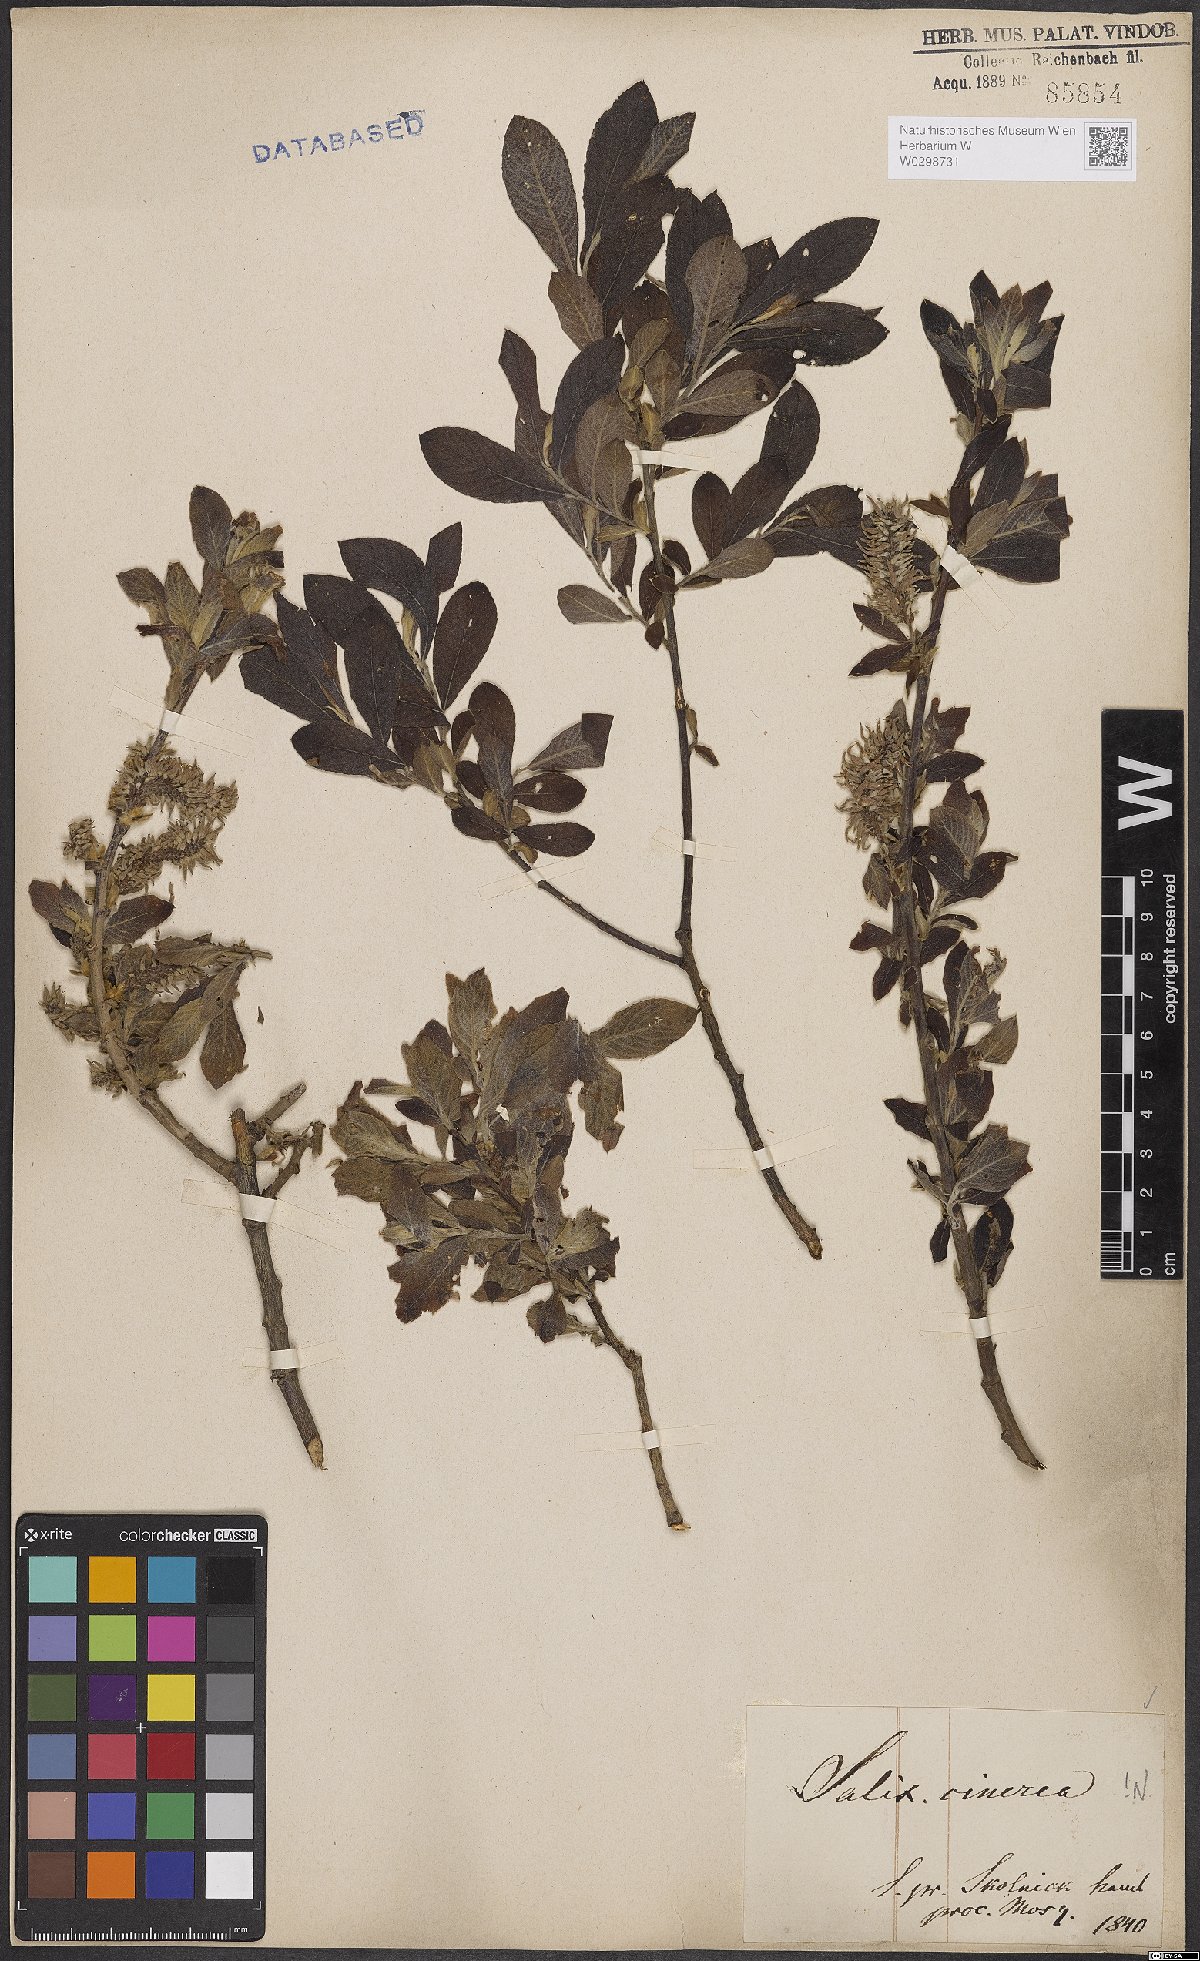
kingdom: Plantae
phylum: Tracheophyta
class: Magnoliopsida
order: Malpighiales
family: Salicaceae
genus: Salix
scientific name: Salix cinerea
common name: Common sallow
